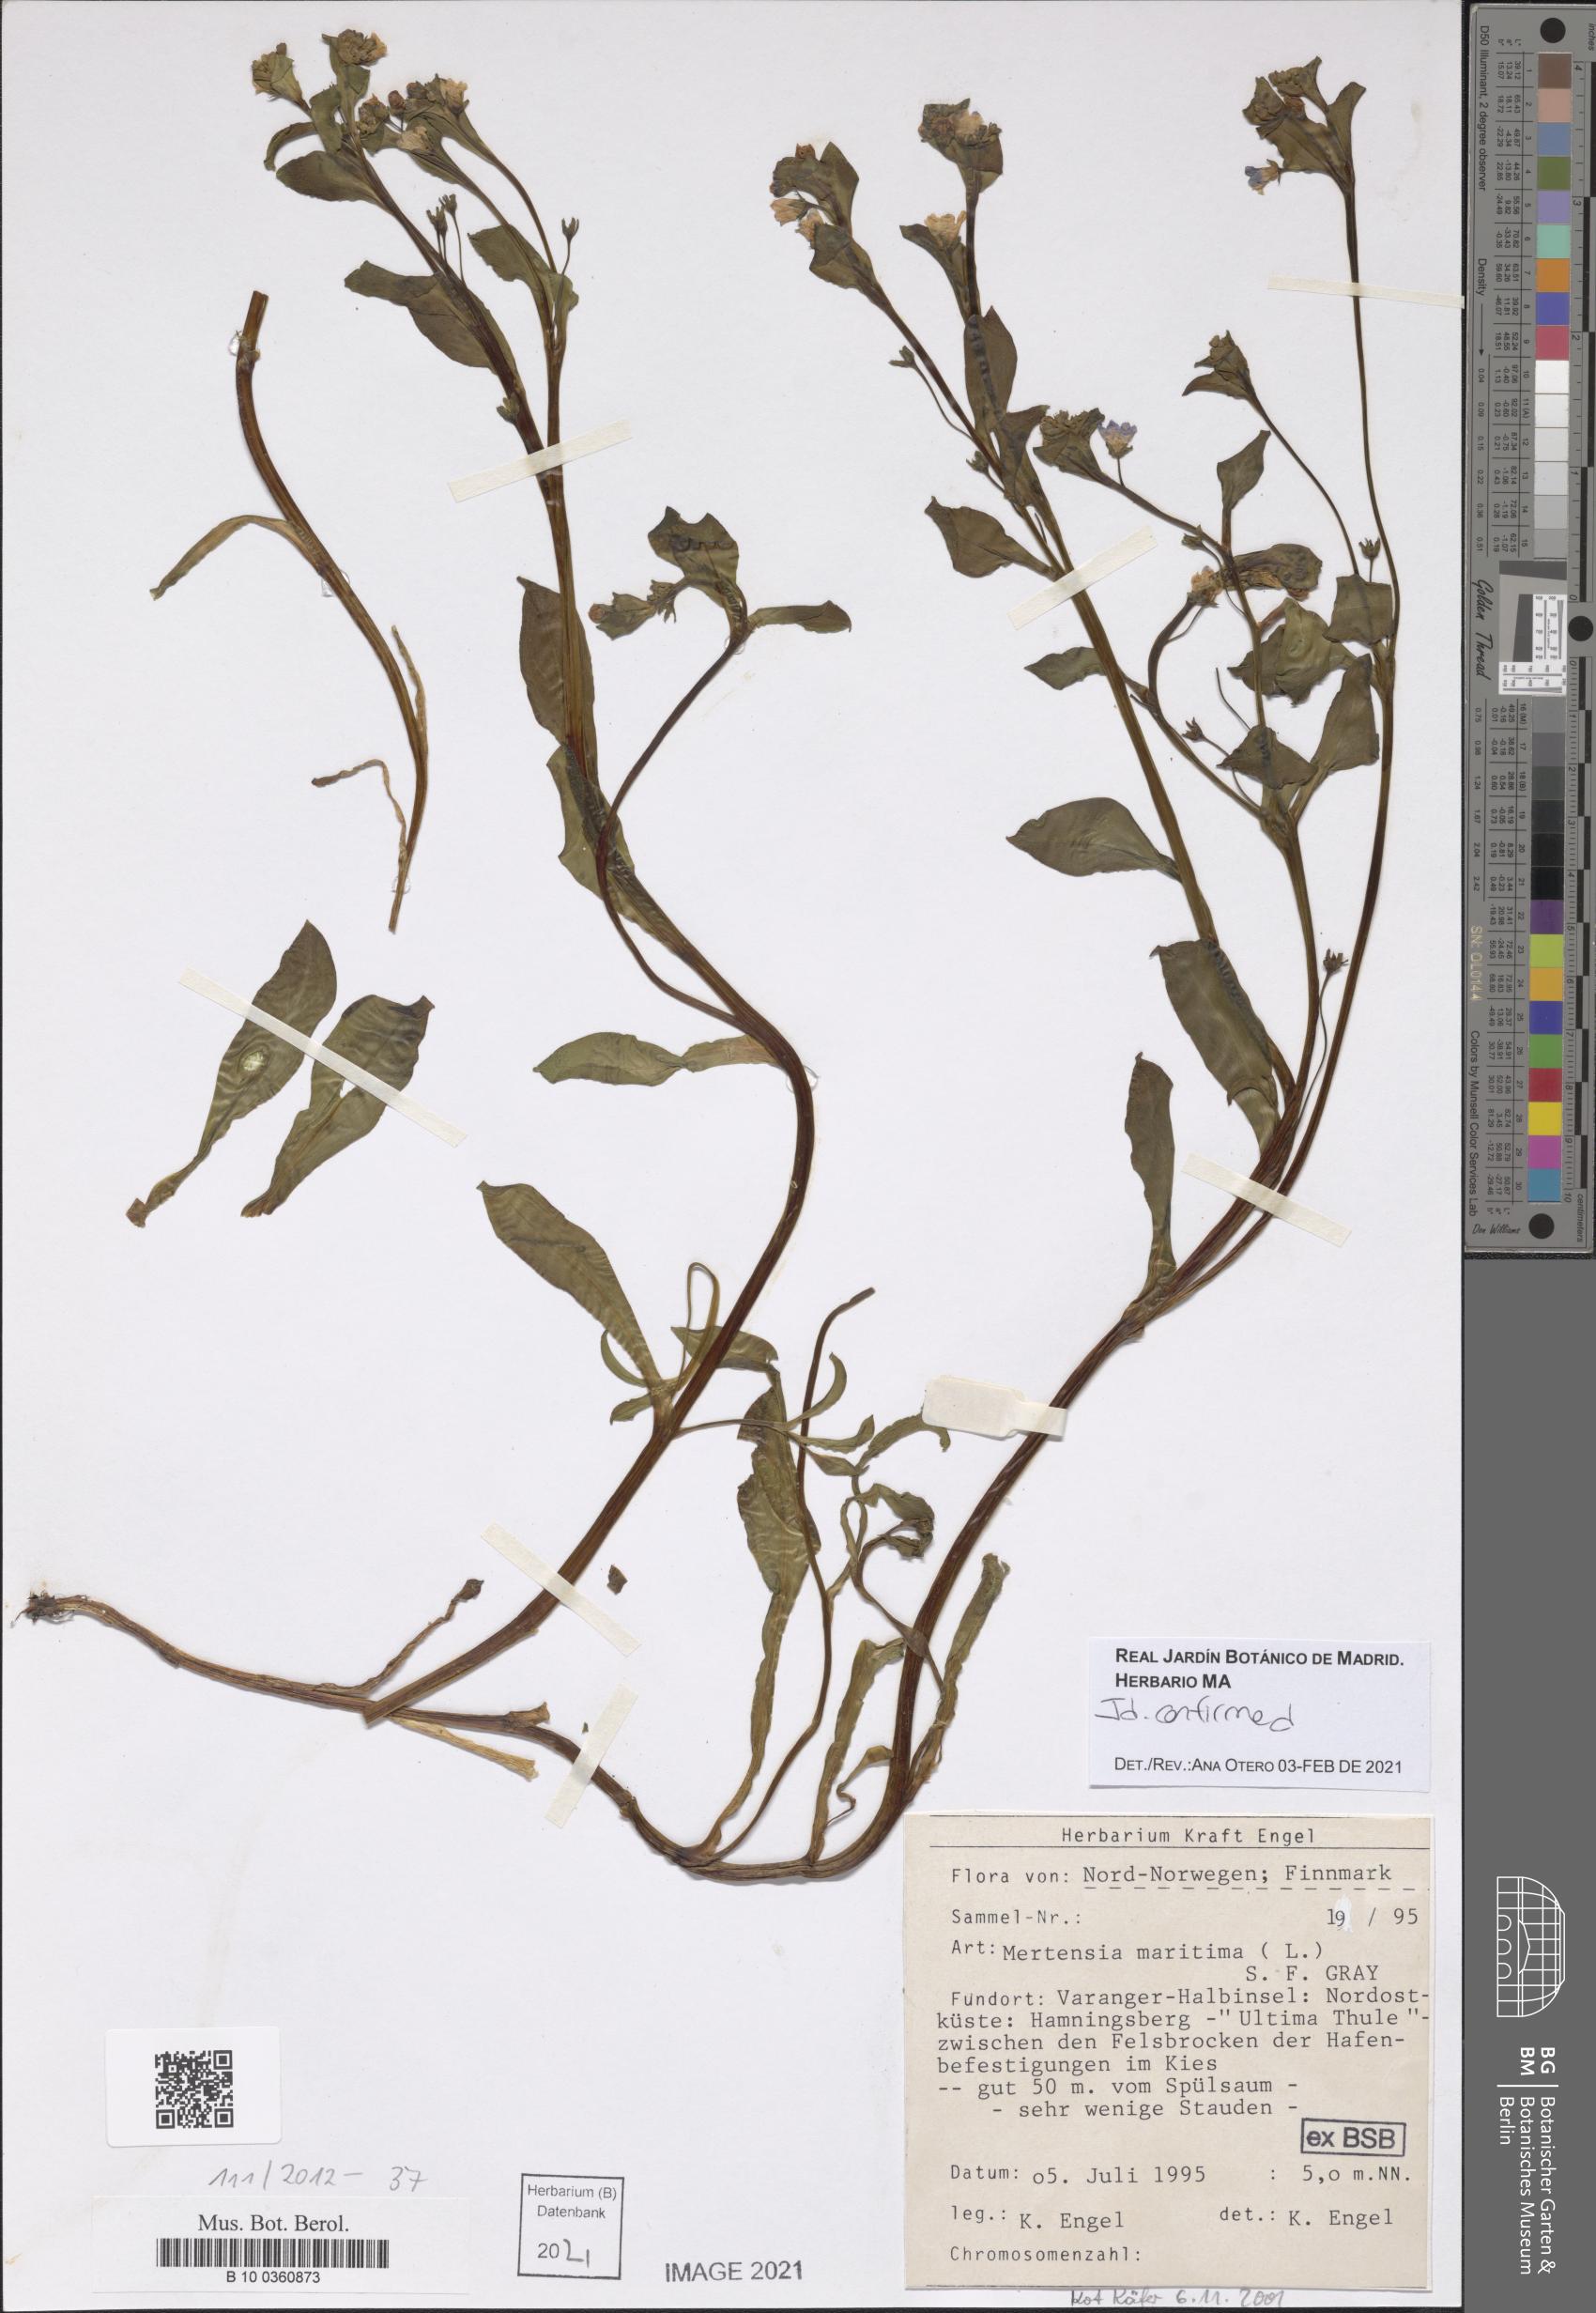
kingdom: Plantae
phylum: Tracheophyta
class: Magnoliopsida
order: Boraginales
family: Boraginaceae
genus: Mertensia
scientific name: Mertensia maritima
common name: Oysterplant
